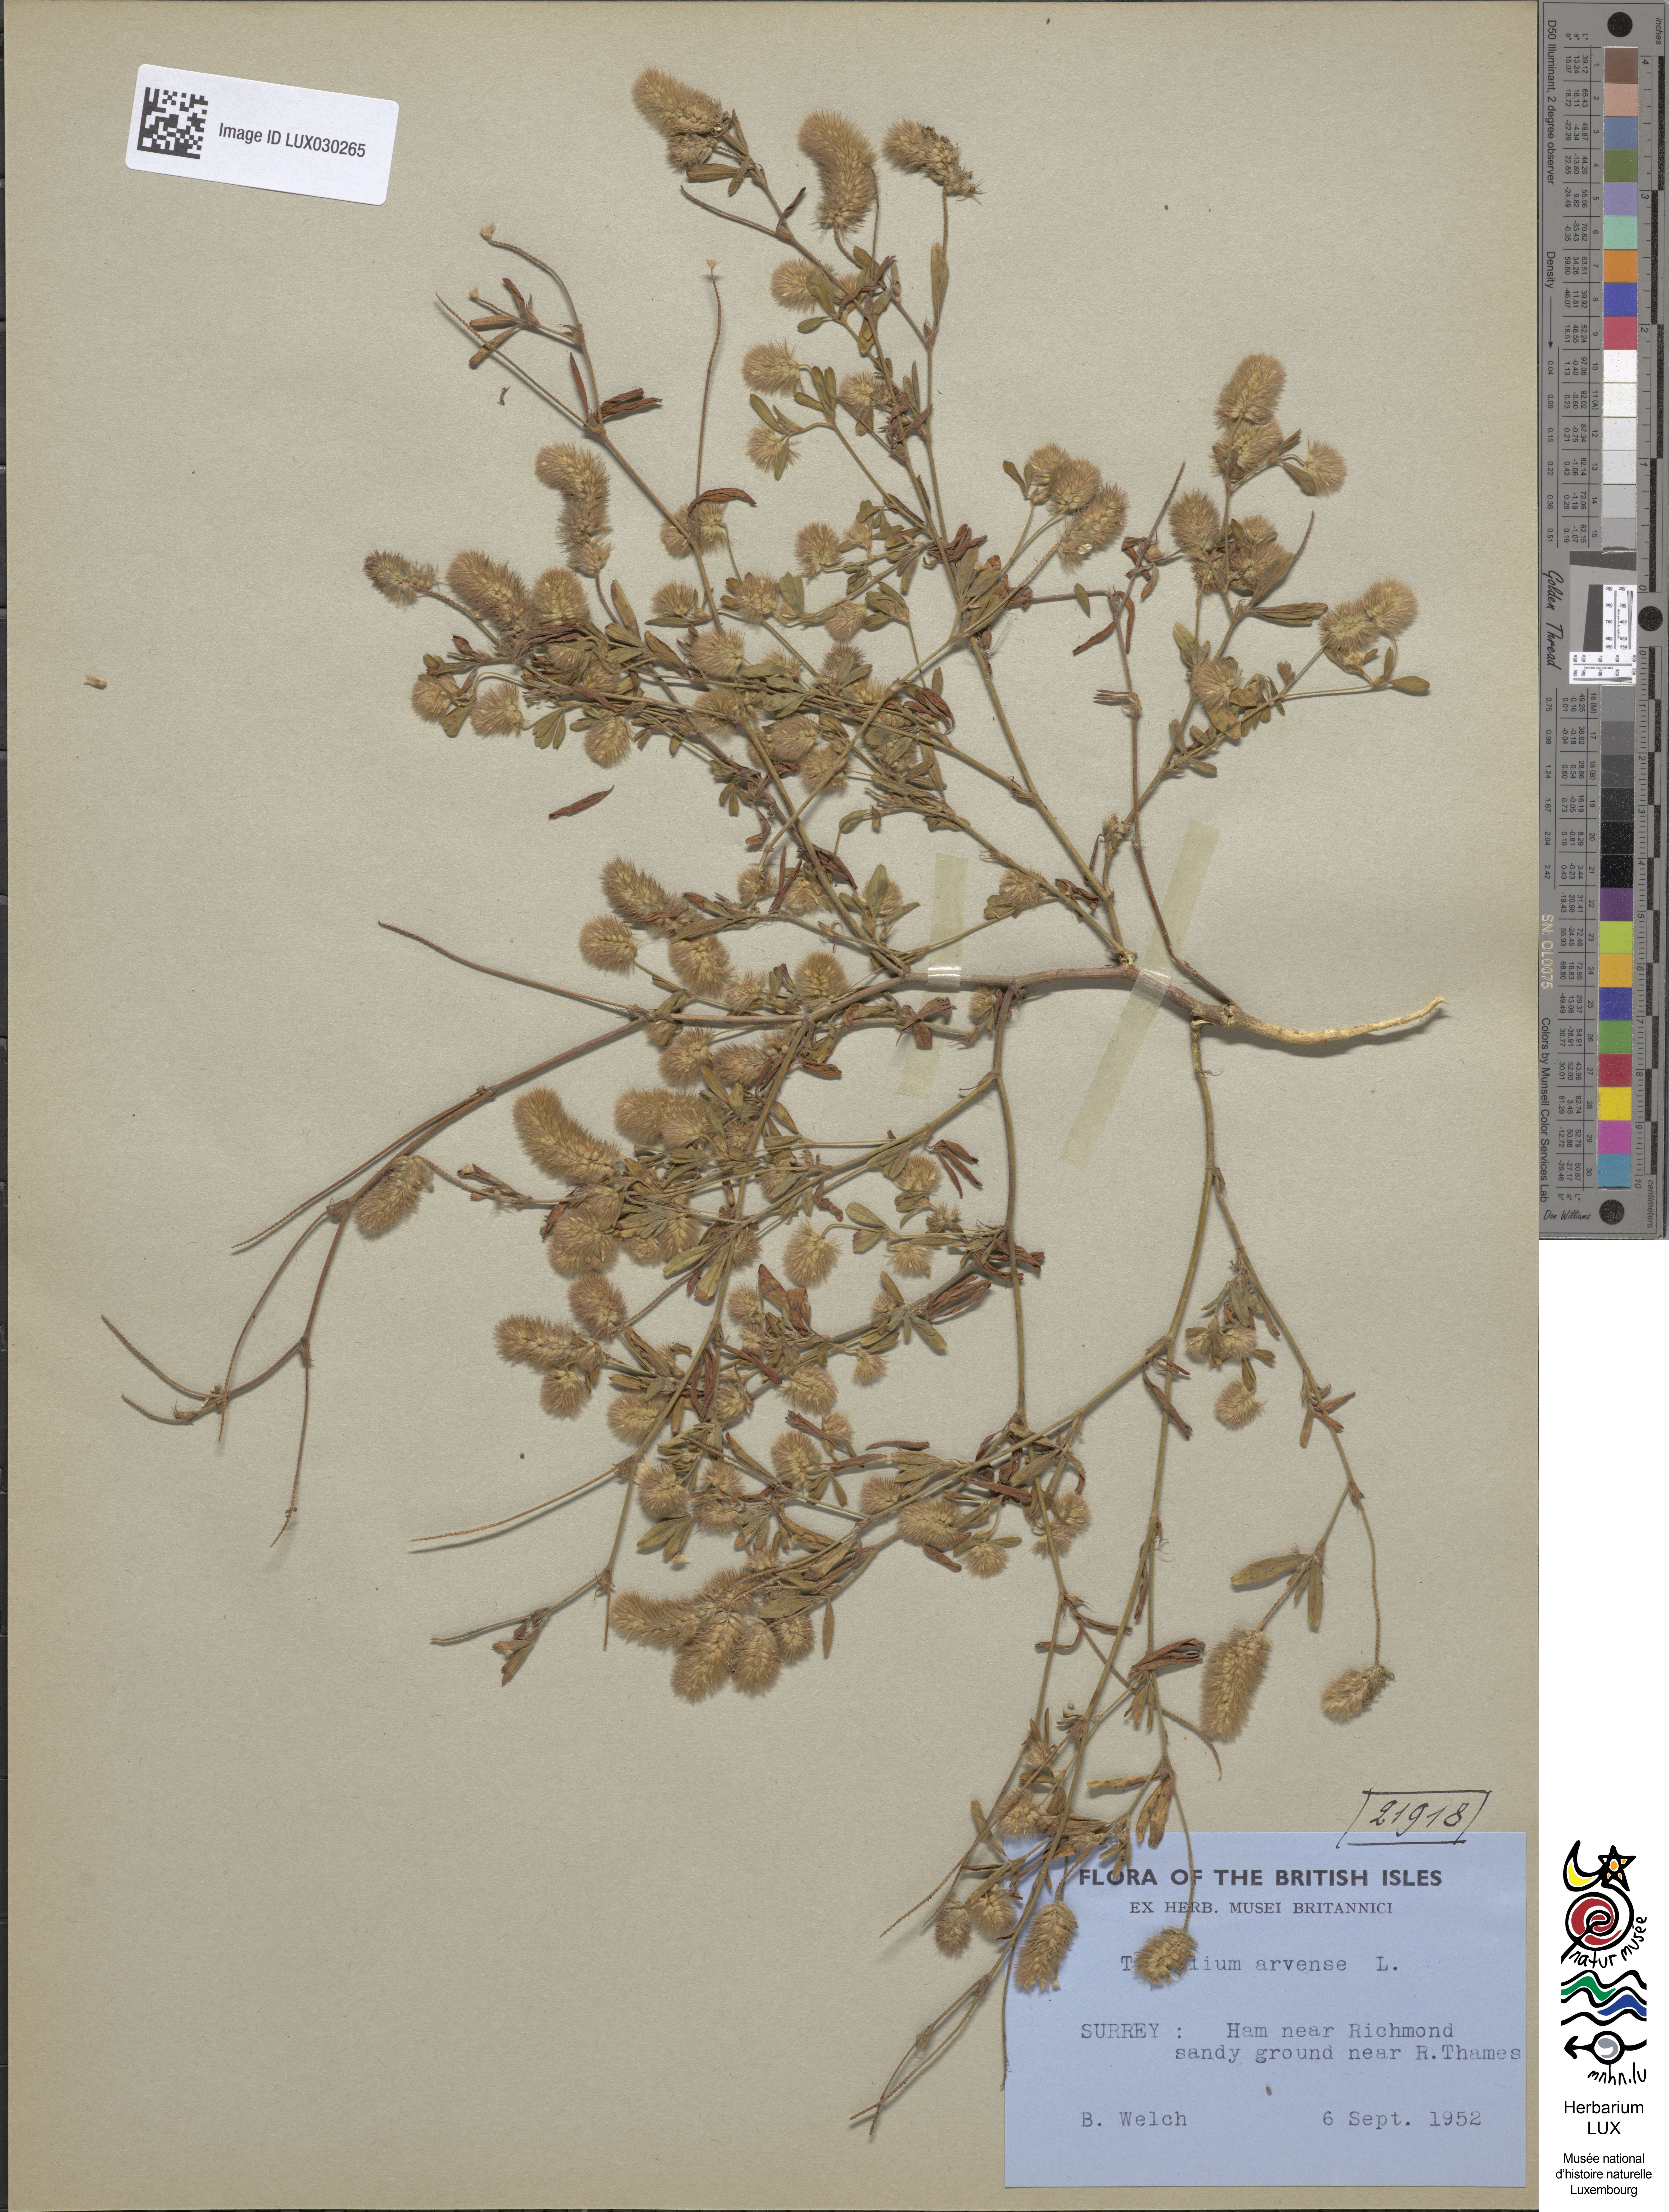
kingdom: Plantae
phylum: Tracheophyta
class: Magnoliopsida
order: Fabales
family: Fabaceae
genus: Trifolium
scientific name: Trifolium arvense
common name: Hare's-foot clover
